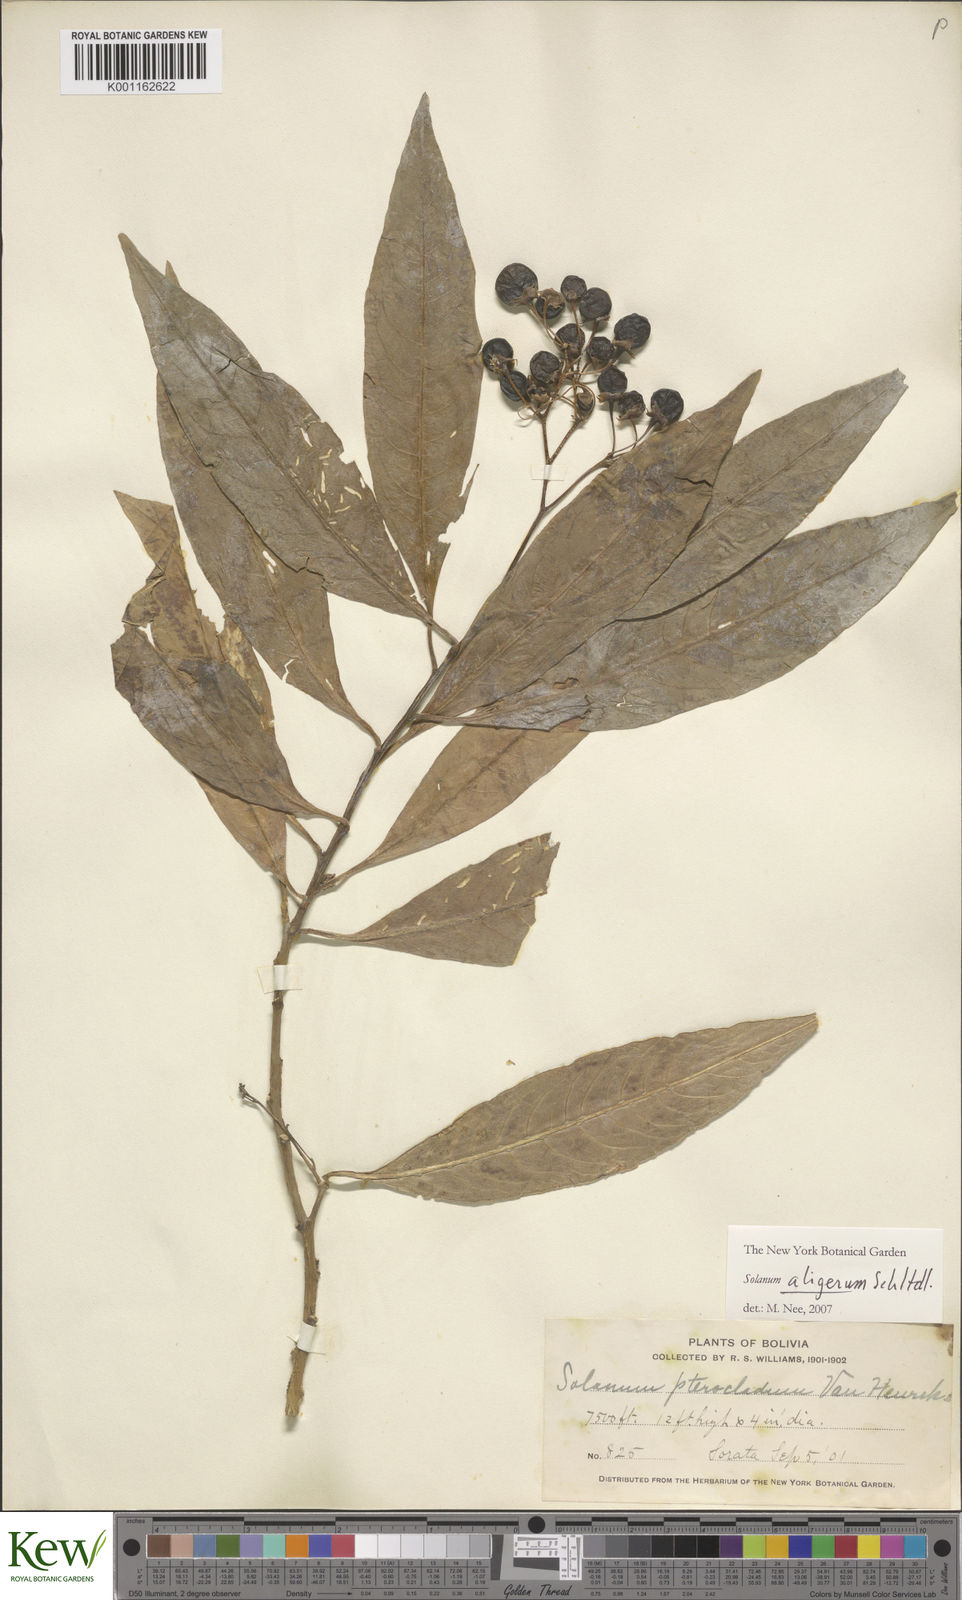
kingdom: Plantae
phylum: Tracheophyta
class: Magnoliopsida
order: Solanales
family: Solanaceae
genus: Solanum
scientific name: Solanum aligerum
